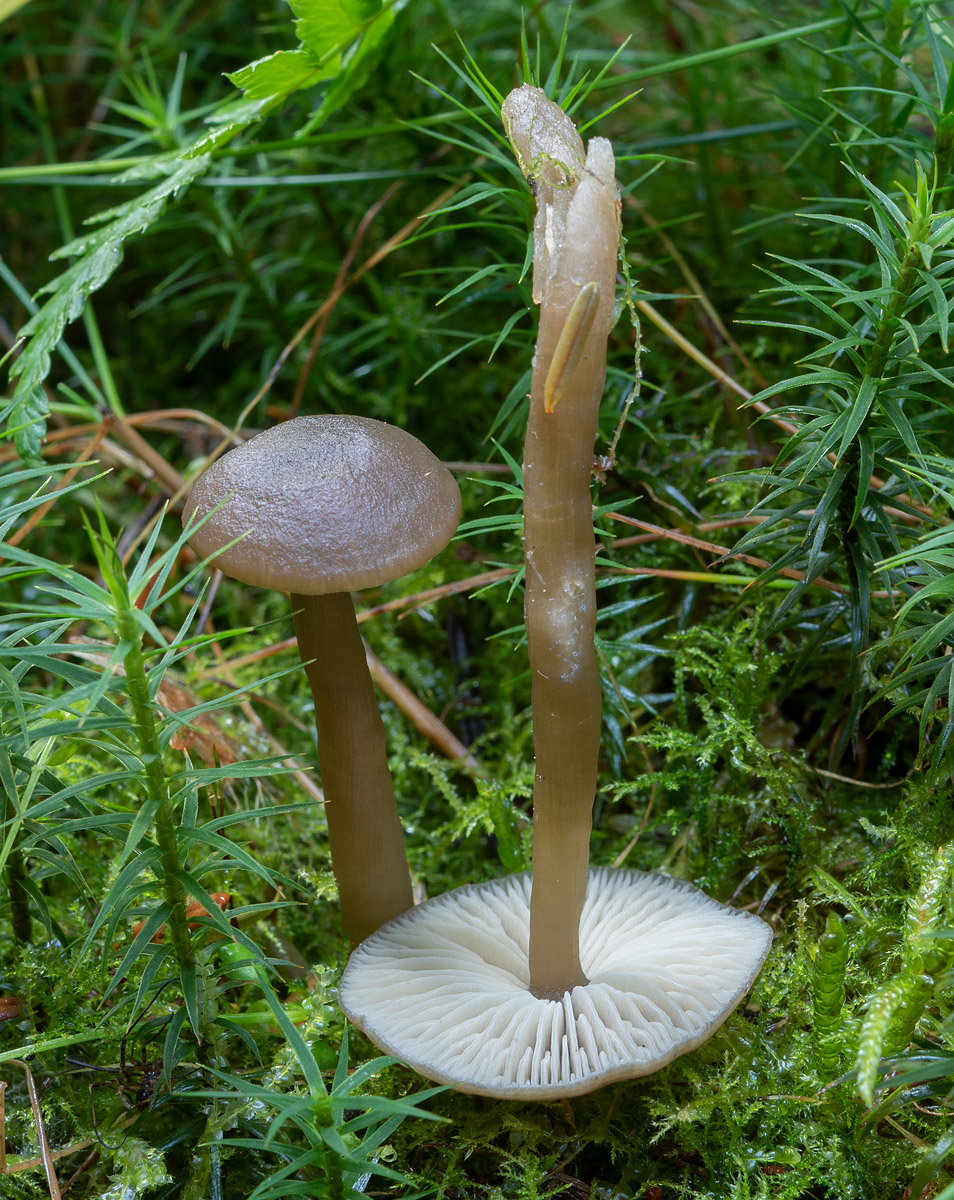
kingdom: Fungi
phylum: Basidiomycota
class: Agaricomycetes
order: Agaricales
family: Tricholomataceae
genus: Clitocybe
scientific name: Clitocybe foetens
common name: olivengrå tragthat
